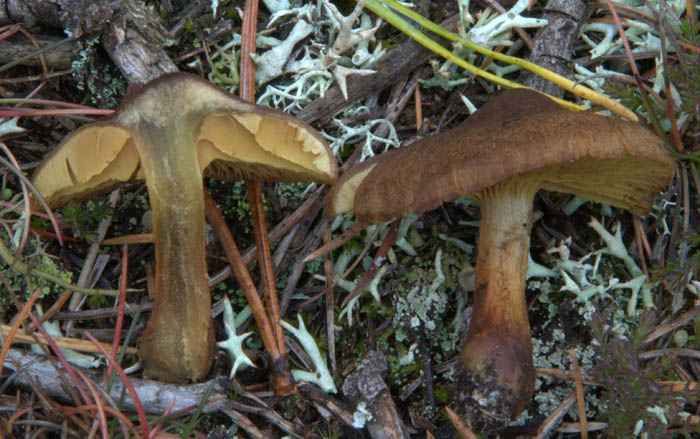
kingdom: Fungi
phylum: Basidiomycota
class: Agaricomycetes
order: Agaricales
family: Cortinariaceae
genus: Cortinarius
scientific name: Cortinarius malicorius
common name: grønkødet slørhat
